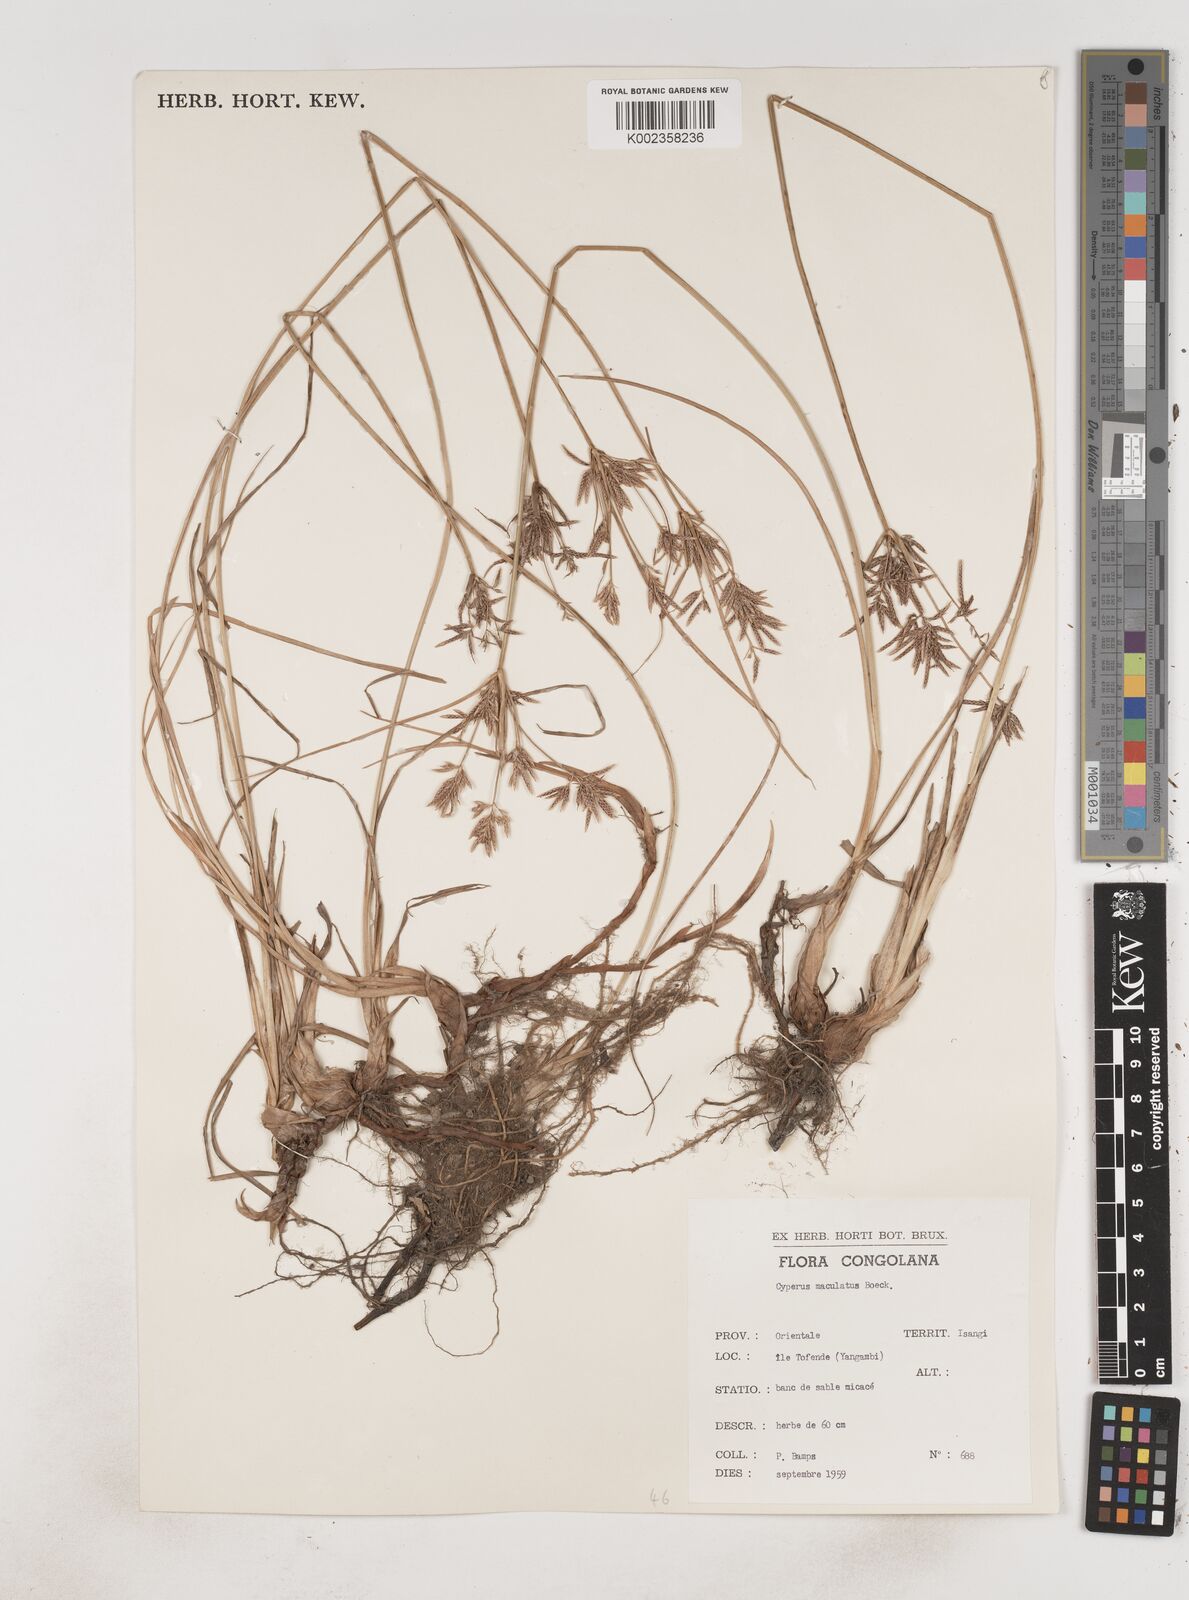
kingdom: Plantae
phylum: Tracheophyta
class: Liliopsida
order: Poales
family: Cyperaceae
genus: Cyperus
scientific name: Cyperus maculatus
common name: Maculated sedge
